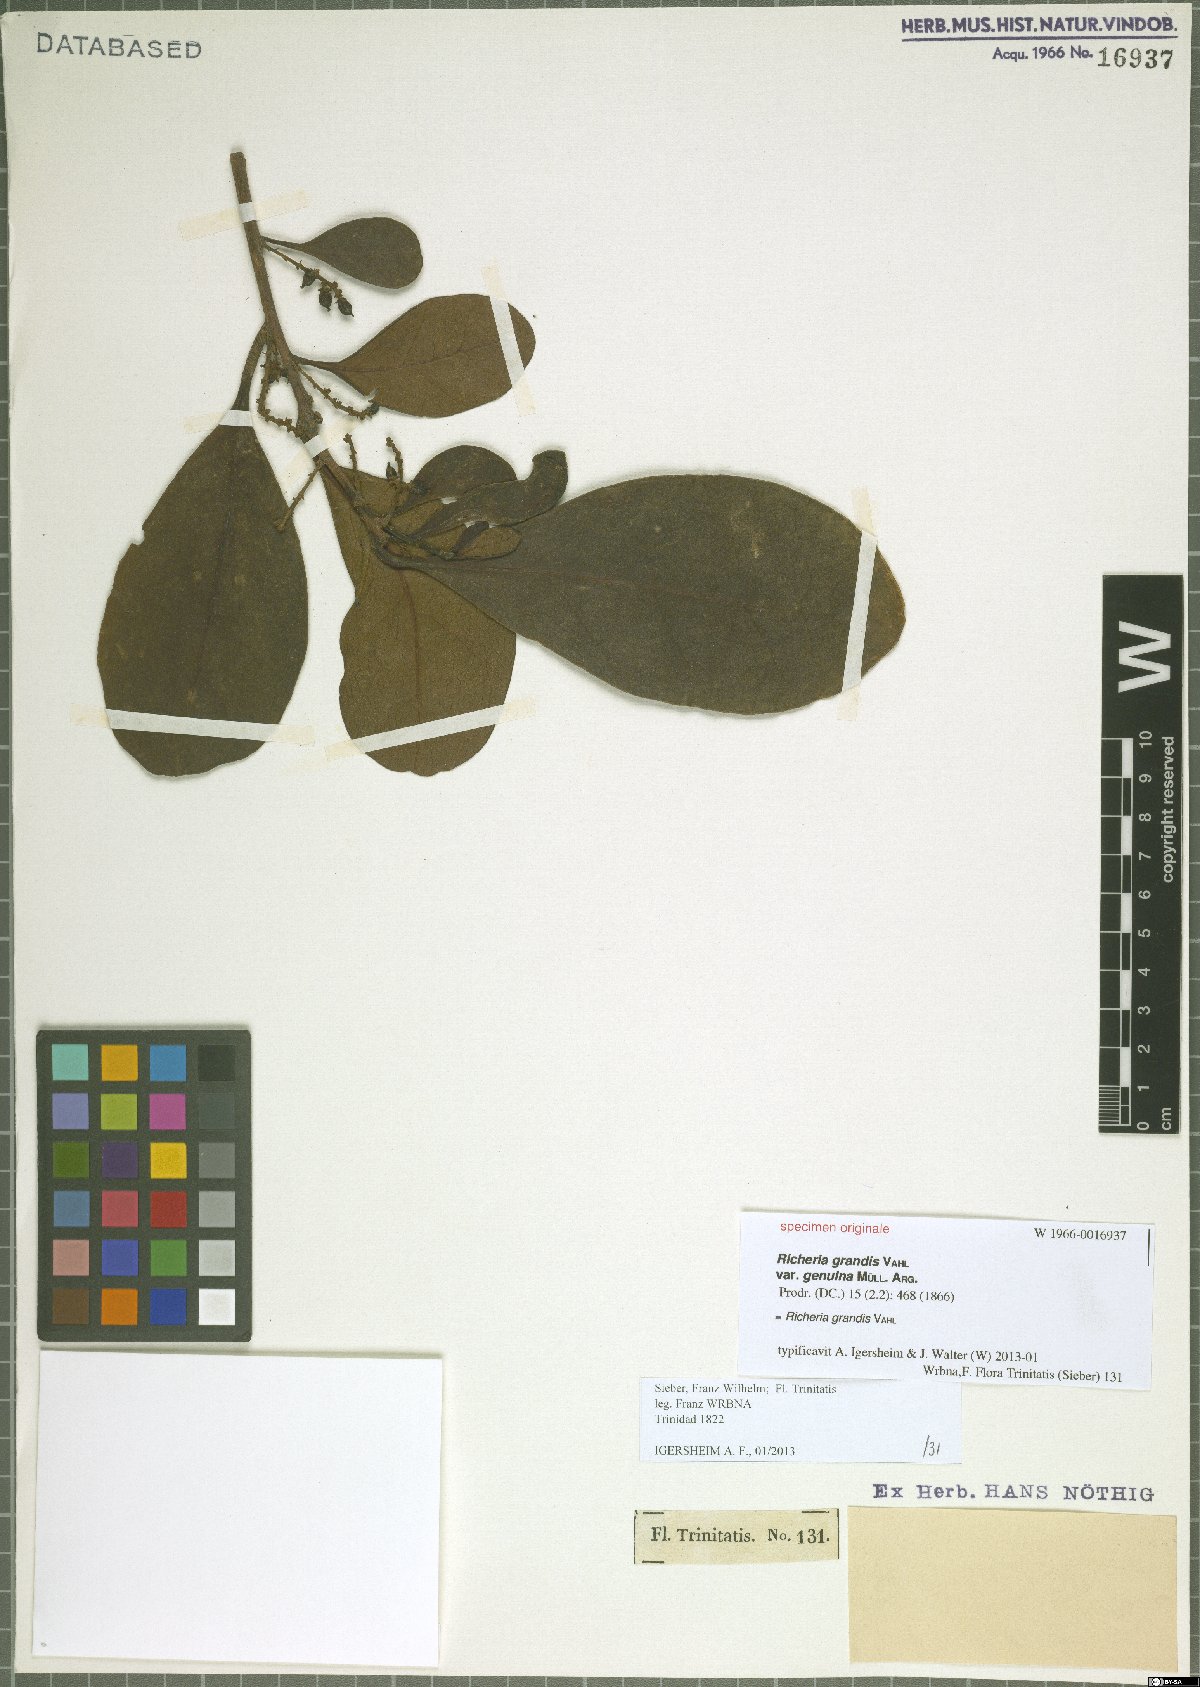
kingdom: Plantae
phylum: Tracheophyta
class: Magnoliopsida
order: Malpighiales
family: Phyllanthaceae
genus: Richeria
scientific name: Richeria grandis
